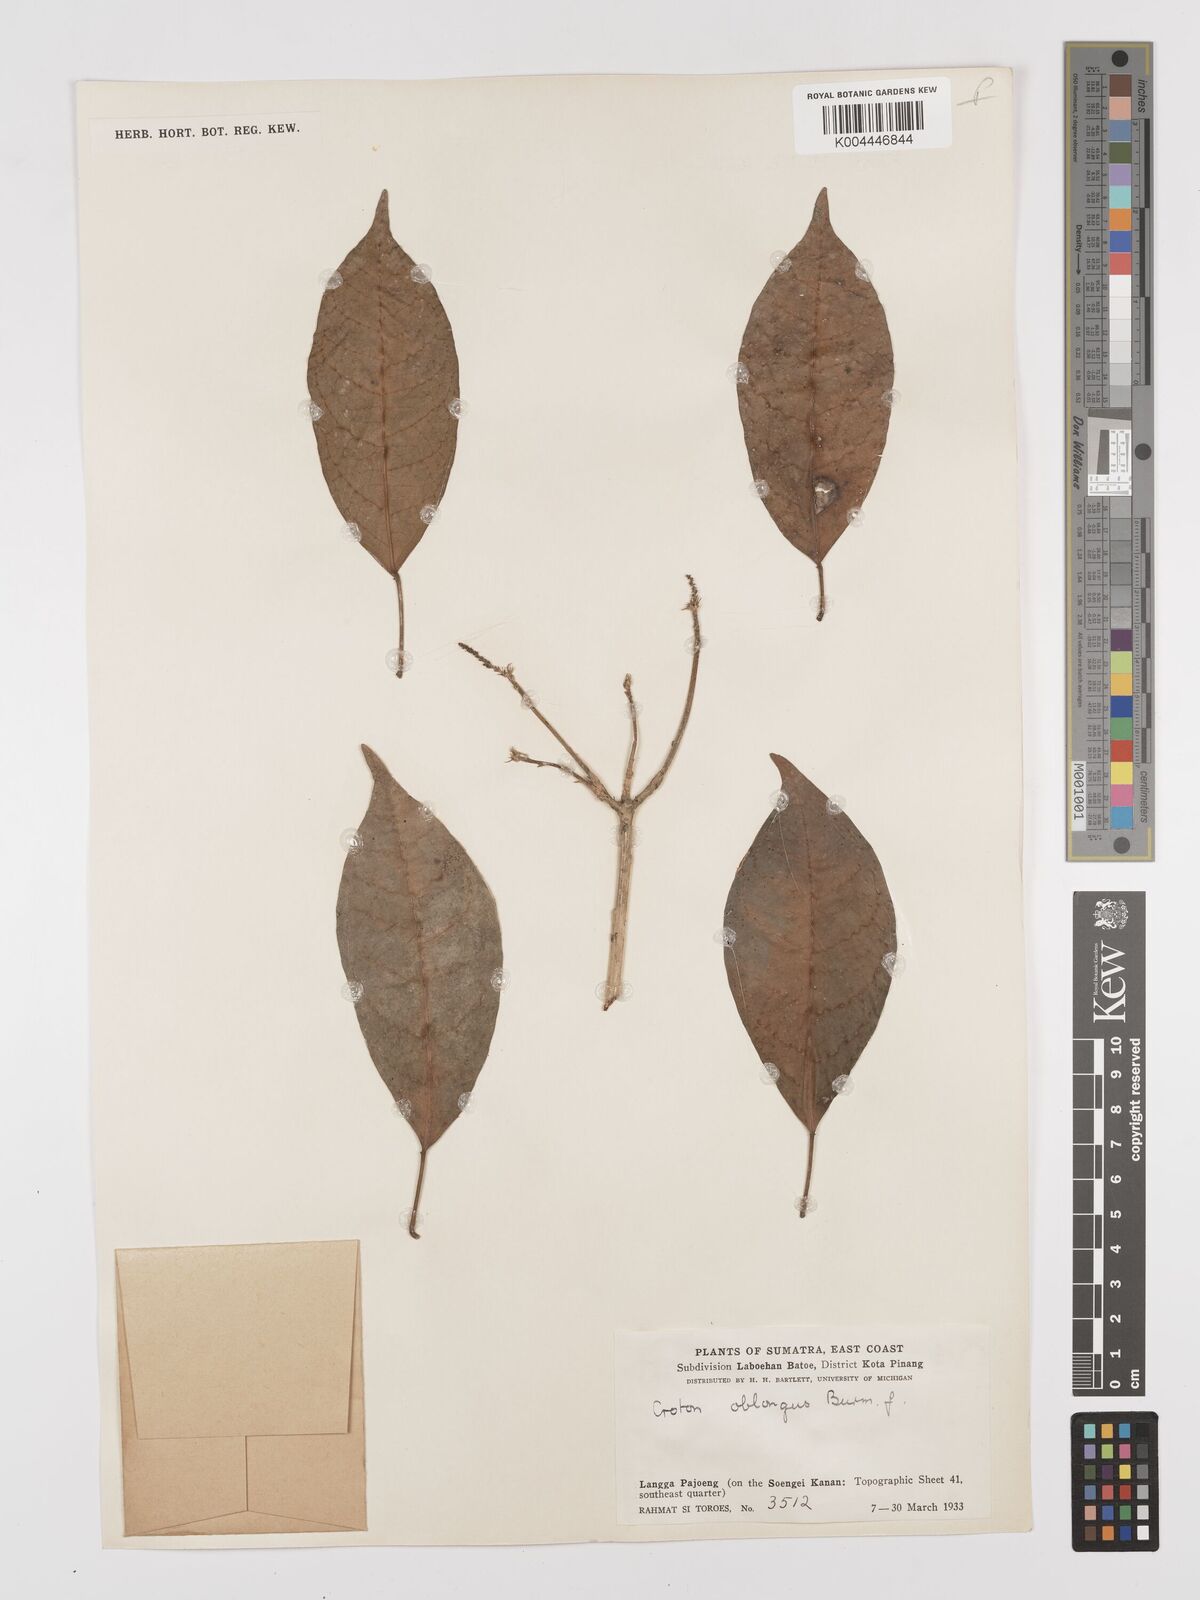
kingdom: Plantae
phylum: Tracheophyta
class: Magnoliopsida
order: Malpighiales
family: Euphorbiaceae
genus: Croton
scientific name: Croton oblongus
